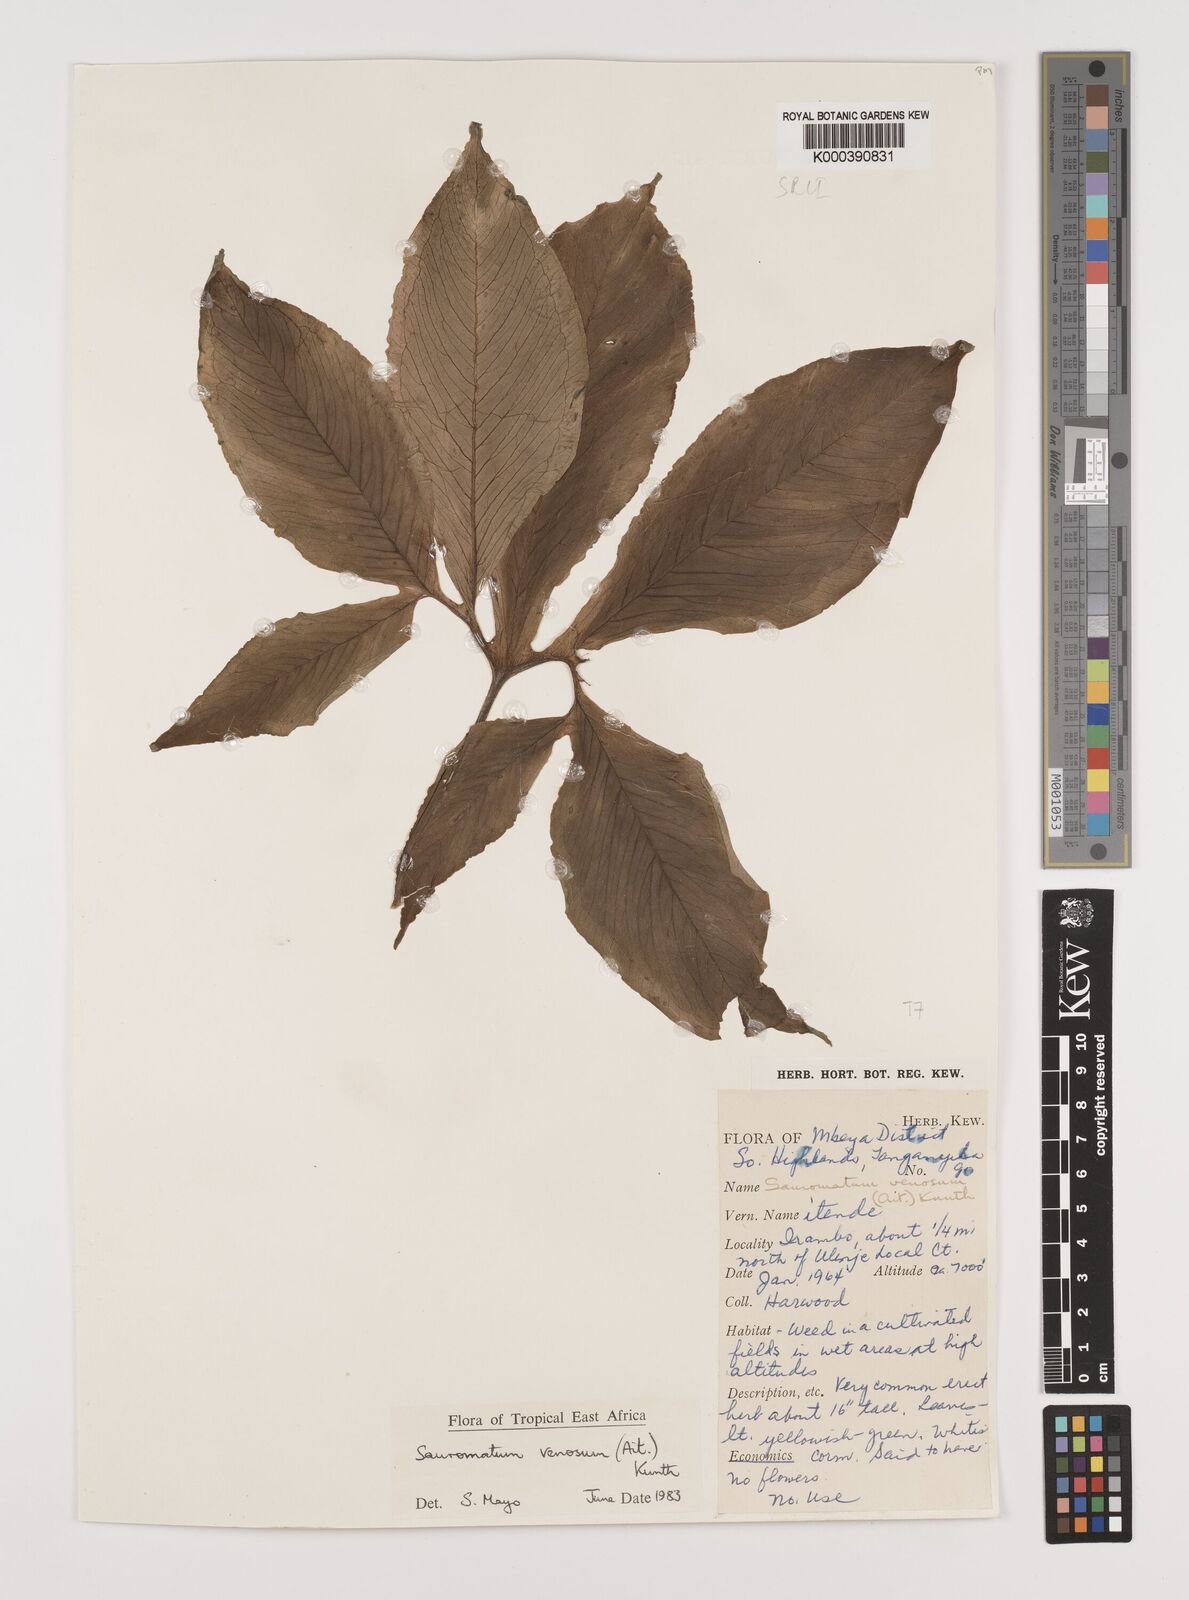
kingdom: Plantae
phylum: Tracheophyta
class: Liliopsida
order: Alismatales
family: Araceae
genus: Sauromatum
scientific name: Sauromatum venosum
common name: Voodoo lily
